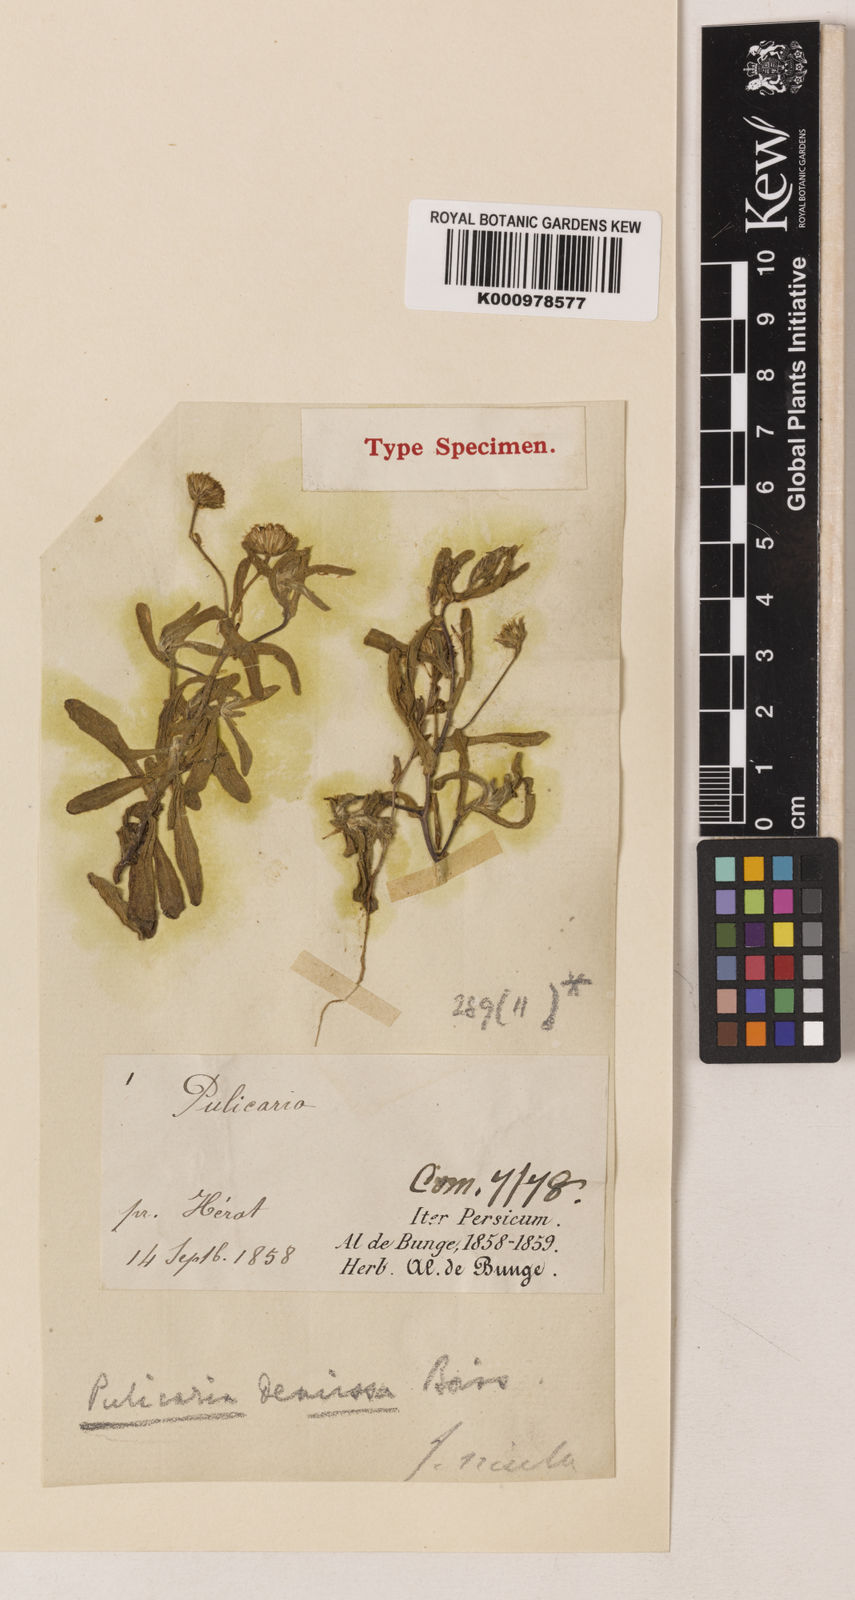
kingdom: Plantae
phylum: Tracheophyta
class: Magnoliopsida
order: Asterales
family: Asteraceae
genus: Pulicaria
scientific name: Pulicaria arabica
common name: Ladies' false fleabane
